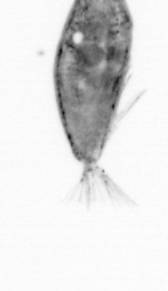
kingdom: Animalia
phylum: Arthropoda
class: Maxillopoda
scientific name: Maxillopoda
